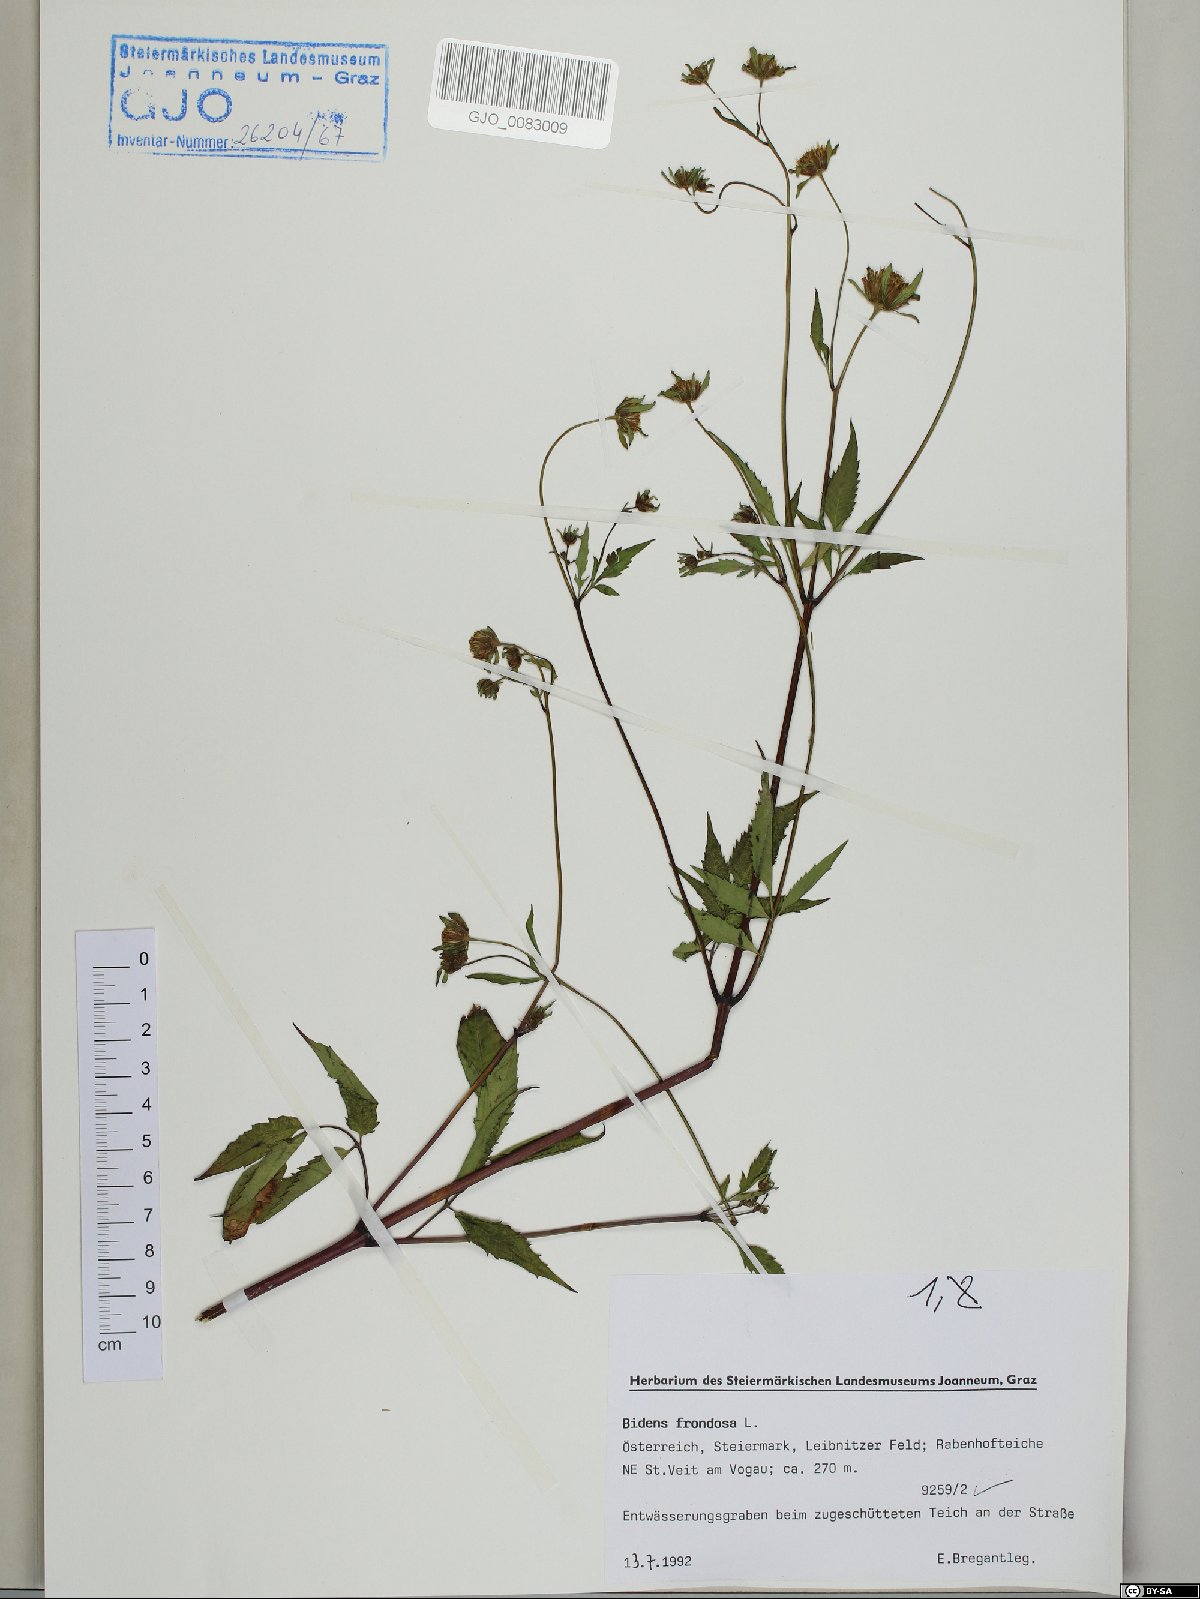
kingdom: Plantae
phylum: Tracheophyta
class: Magnoliopsida
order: Asterales
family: Asteraceae
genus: Bidens
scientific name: Bidens frondosa
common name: Beggarticks
